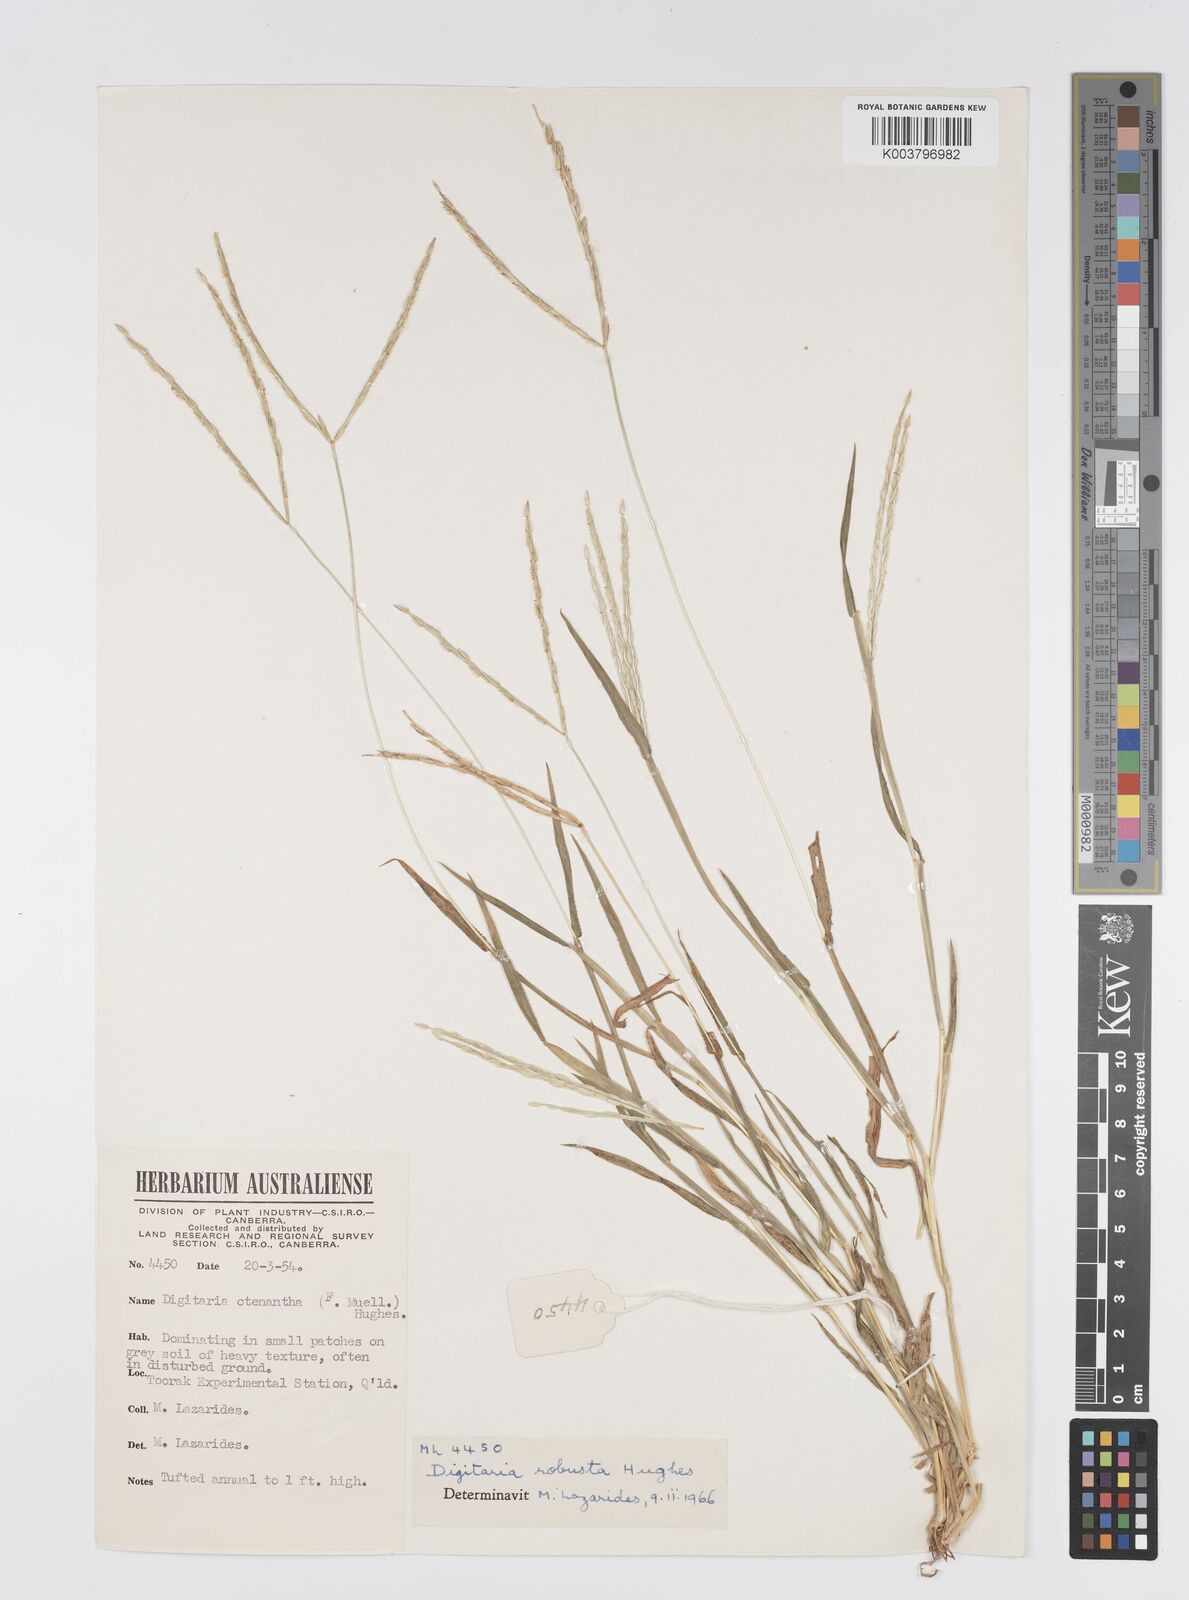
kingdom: Plantae
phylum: Tracheophyta
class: Liliopsida
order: Poales
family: Poaceae
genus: Digitaria
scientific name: Digitaria ctenantha
